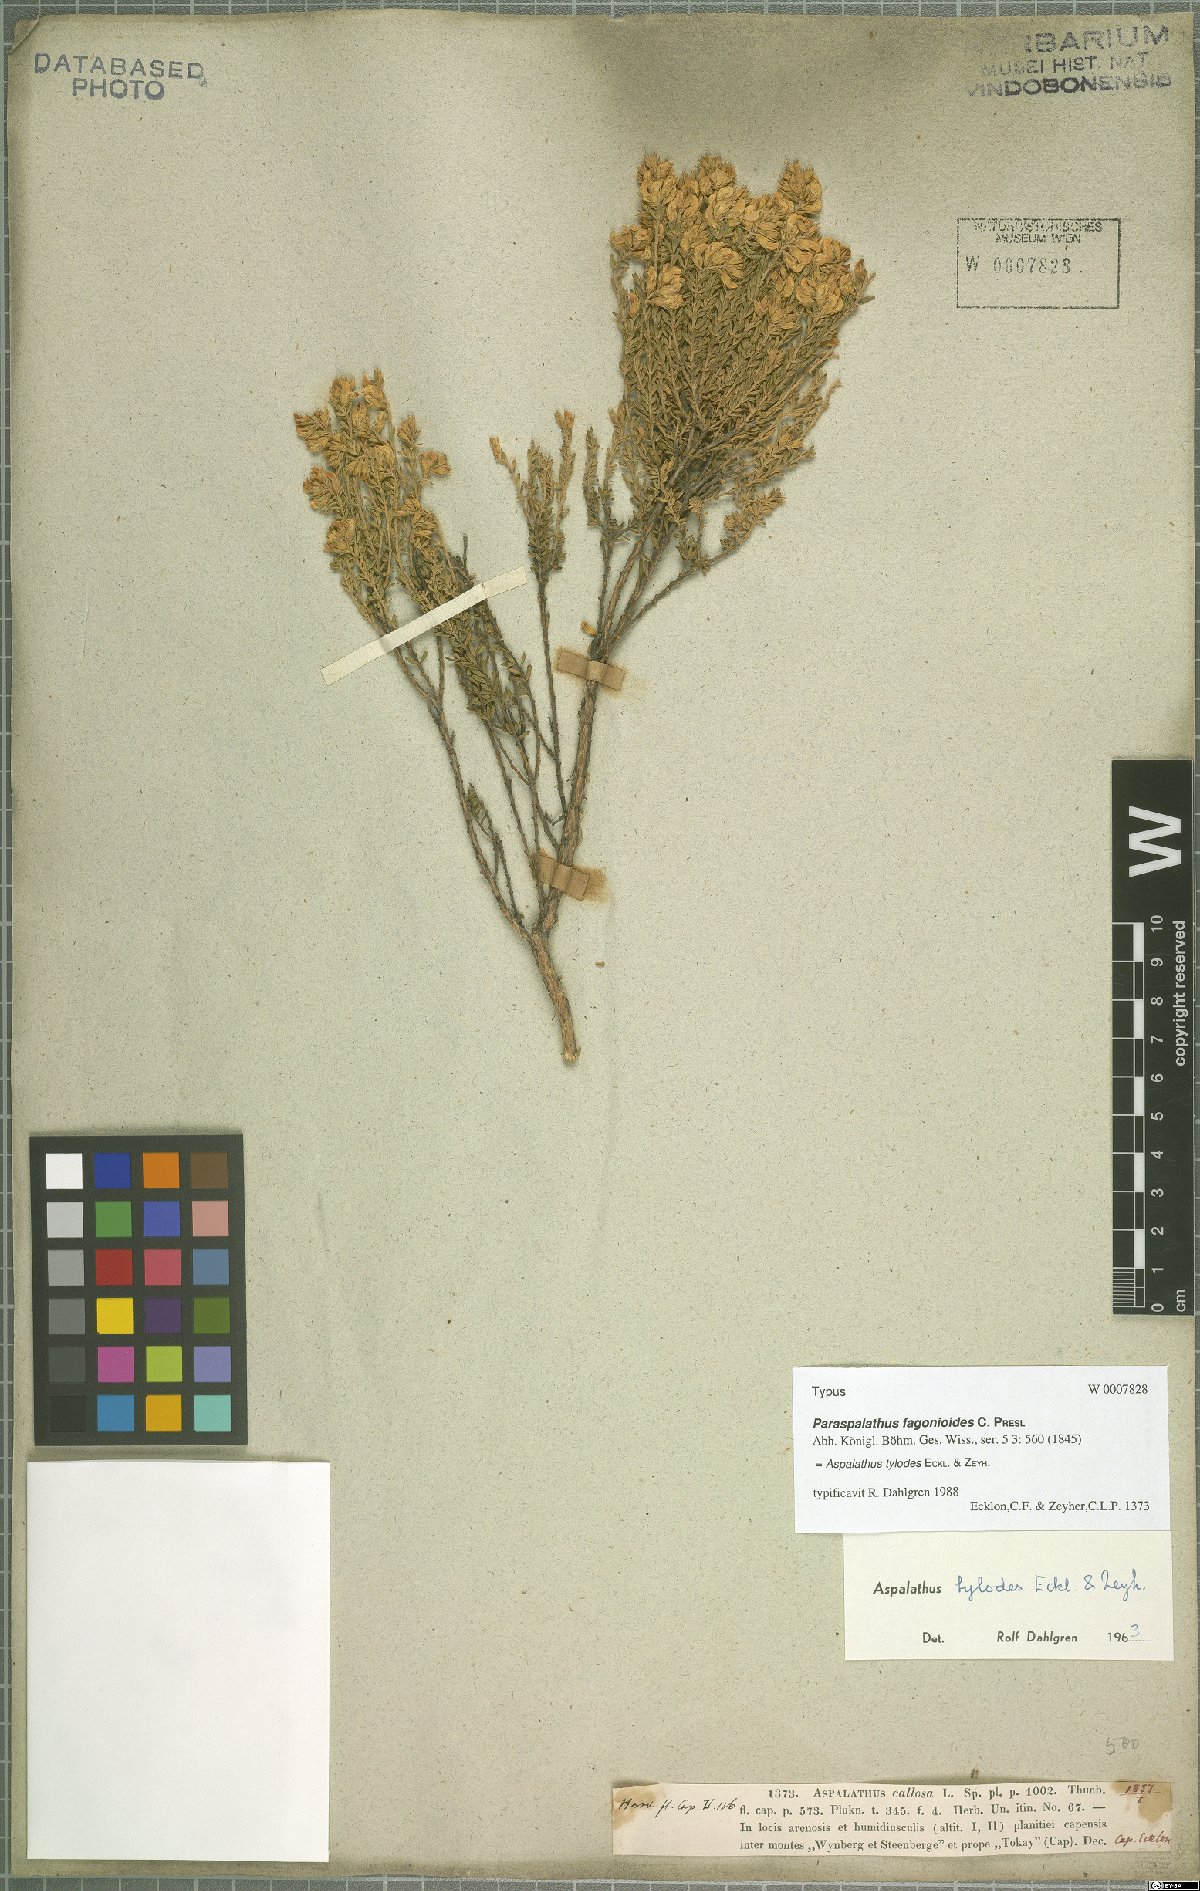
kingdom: Plantae
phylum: Tracheophyta
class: Magnoliopsida
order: Fabales
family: Fabaceae
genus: Aspalathus
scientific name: Aspalathus tylodes
